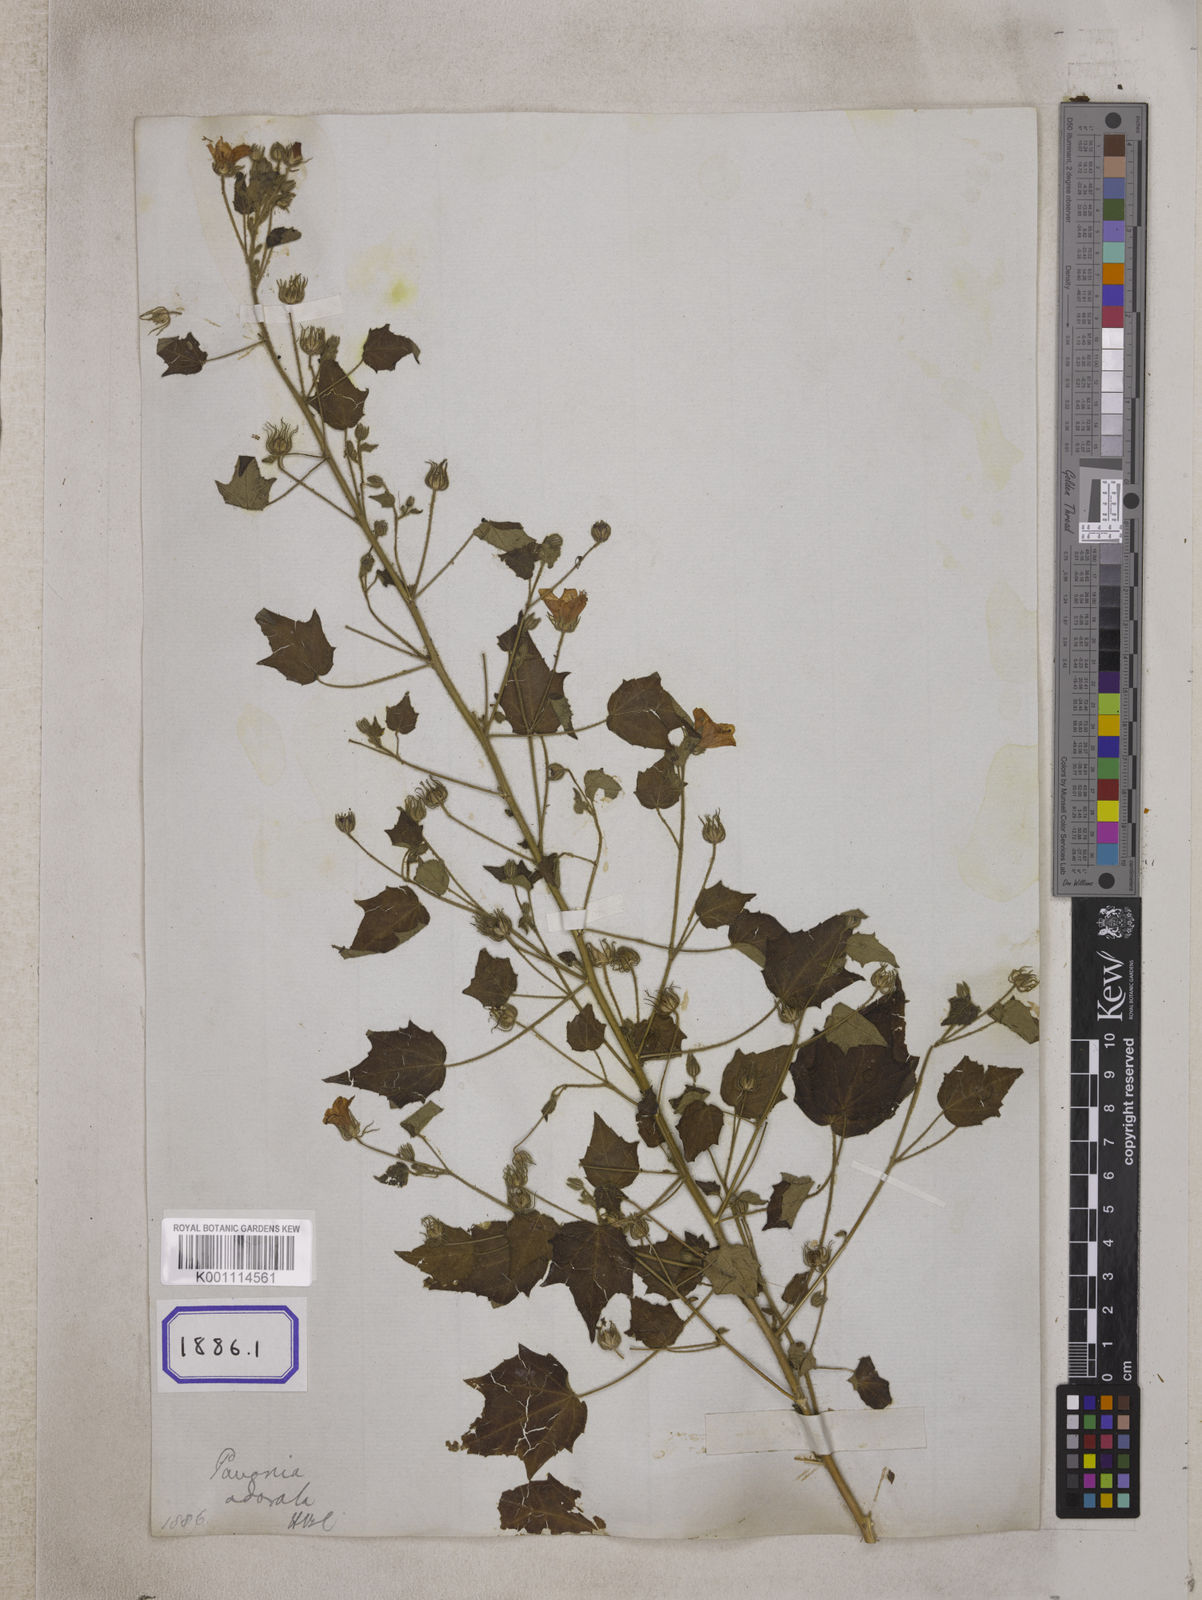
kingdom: Plantae
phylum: Tracheophyta
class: Magnoliopsida
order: Malvales
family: Malvaceae
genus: Pavonia
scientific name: Pavonia zeylonica
